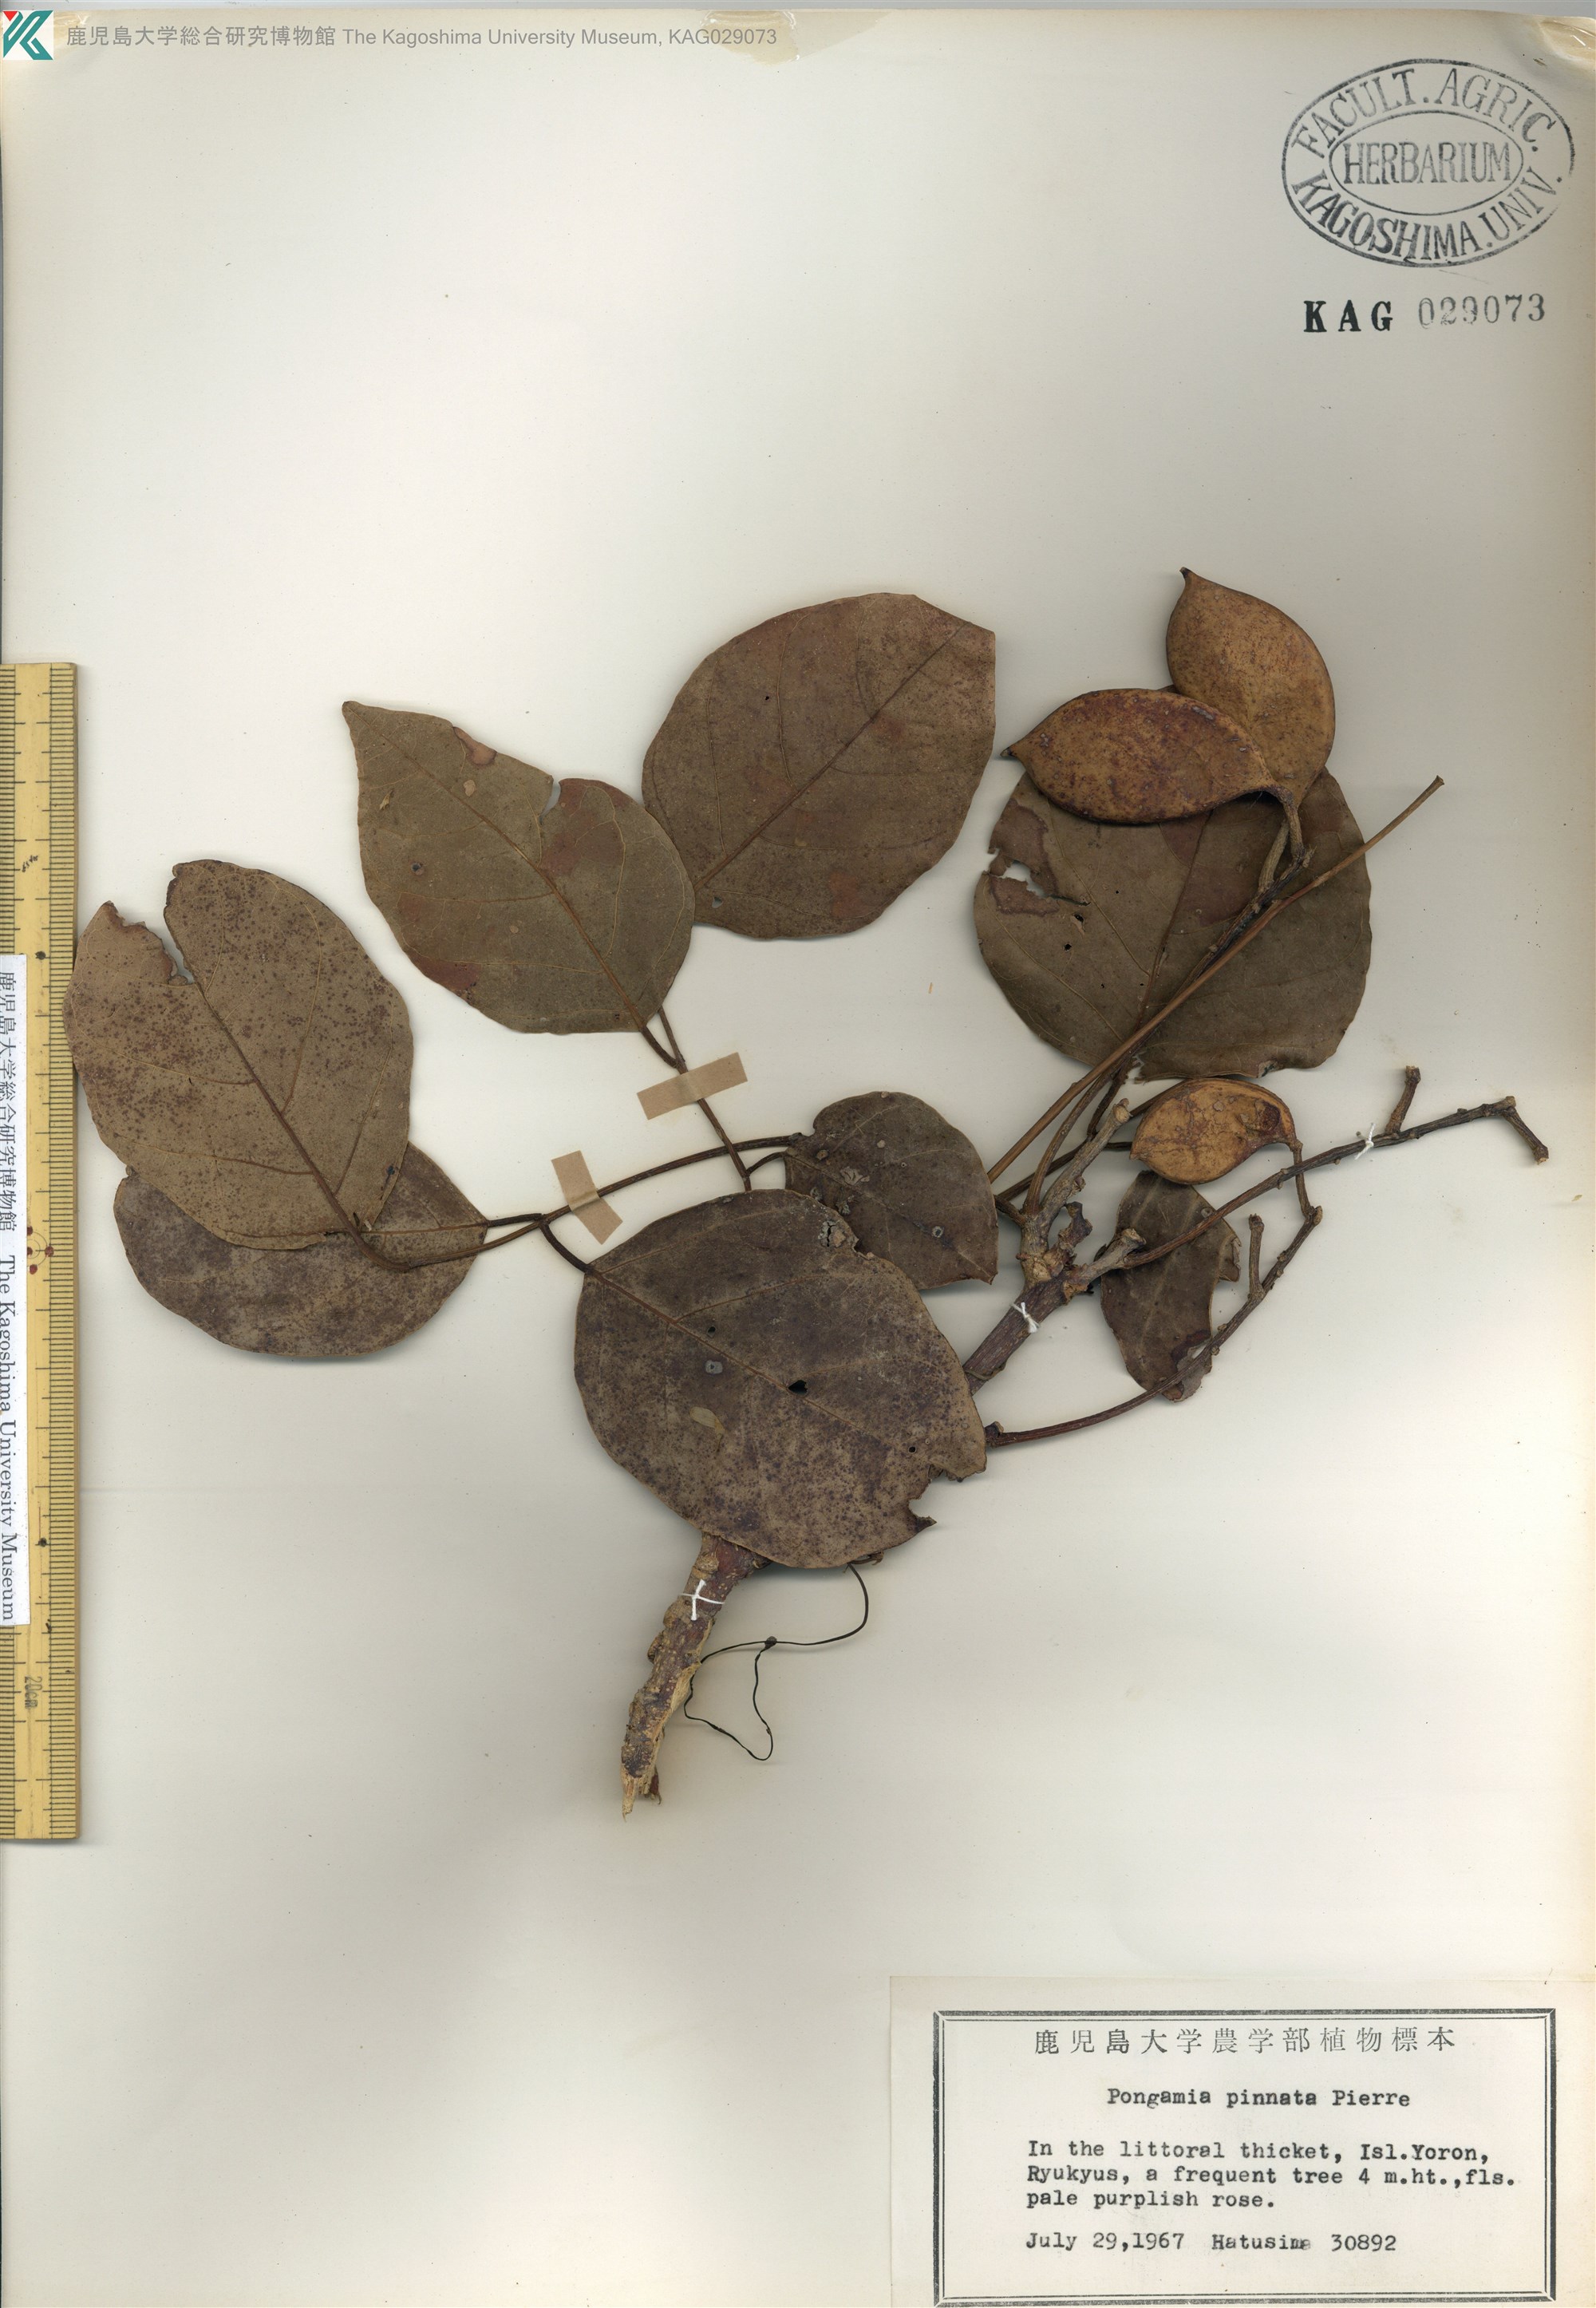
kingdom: Plantae
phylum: Tracheophyta
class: Magnoliopsida
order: Fabales
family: Fabaceae
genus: Pongamia
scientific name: Pongamia pinnata
